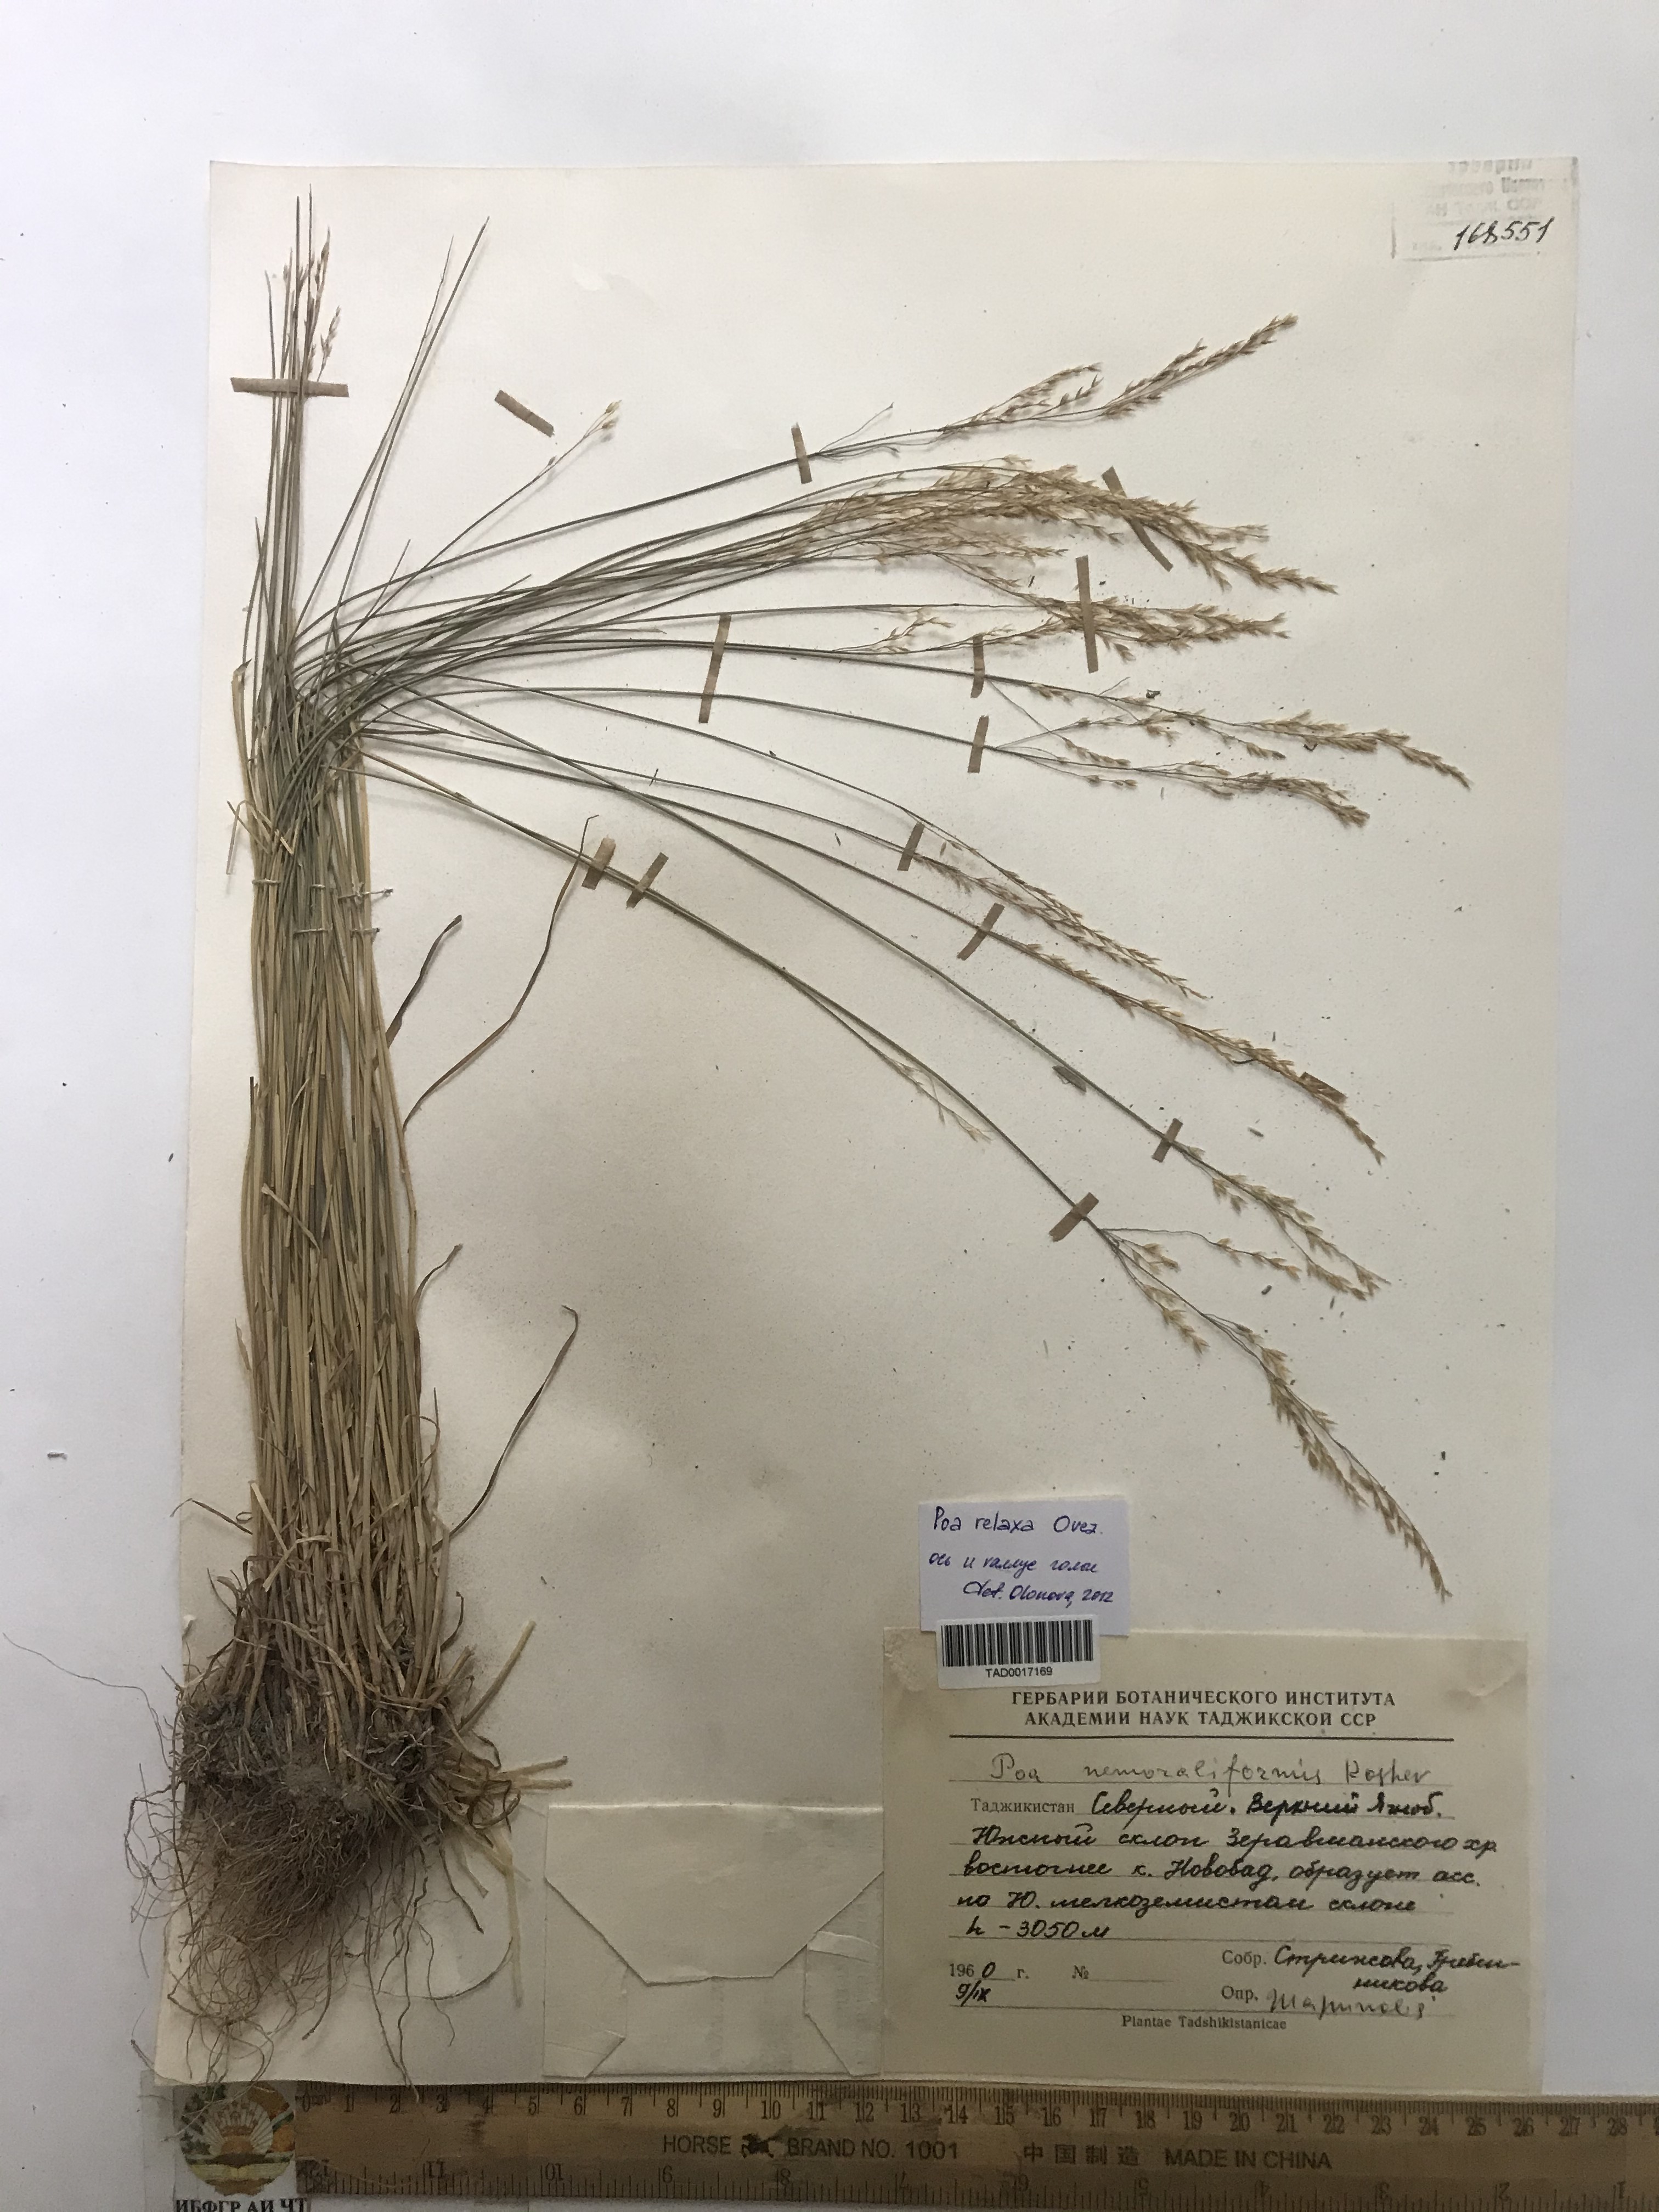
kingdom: Plantae
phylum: Tracheophyta
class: Liliopsida
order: Poales
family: Poaceae
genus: Poa
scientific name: Poa urssulensis
